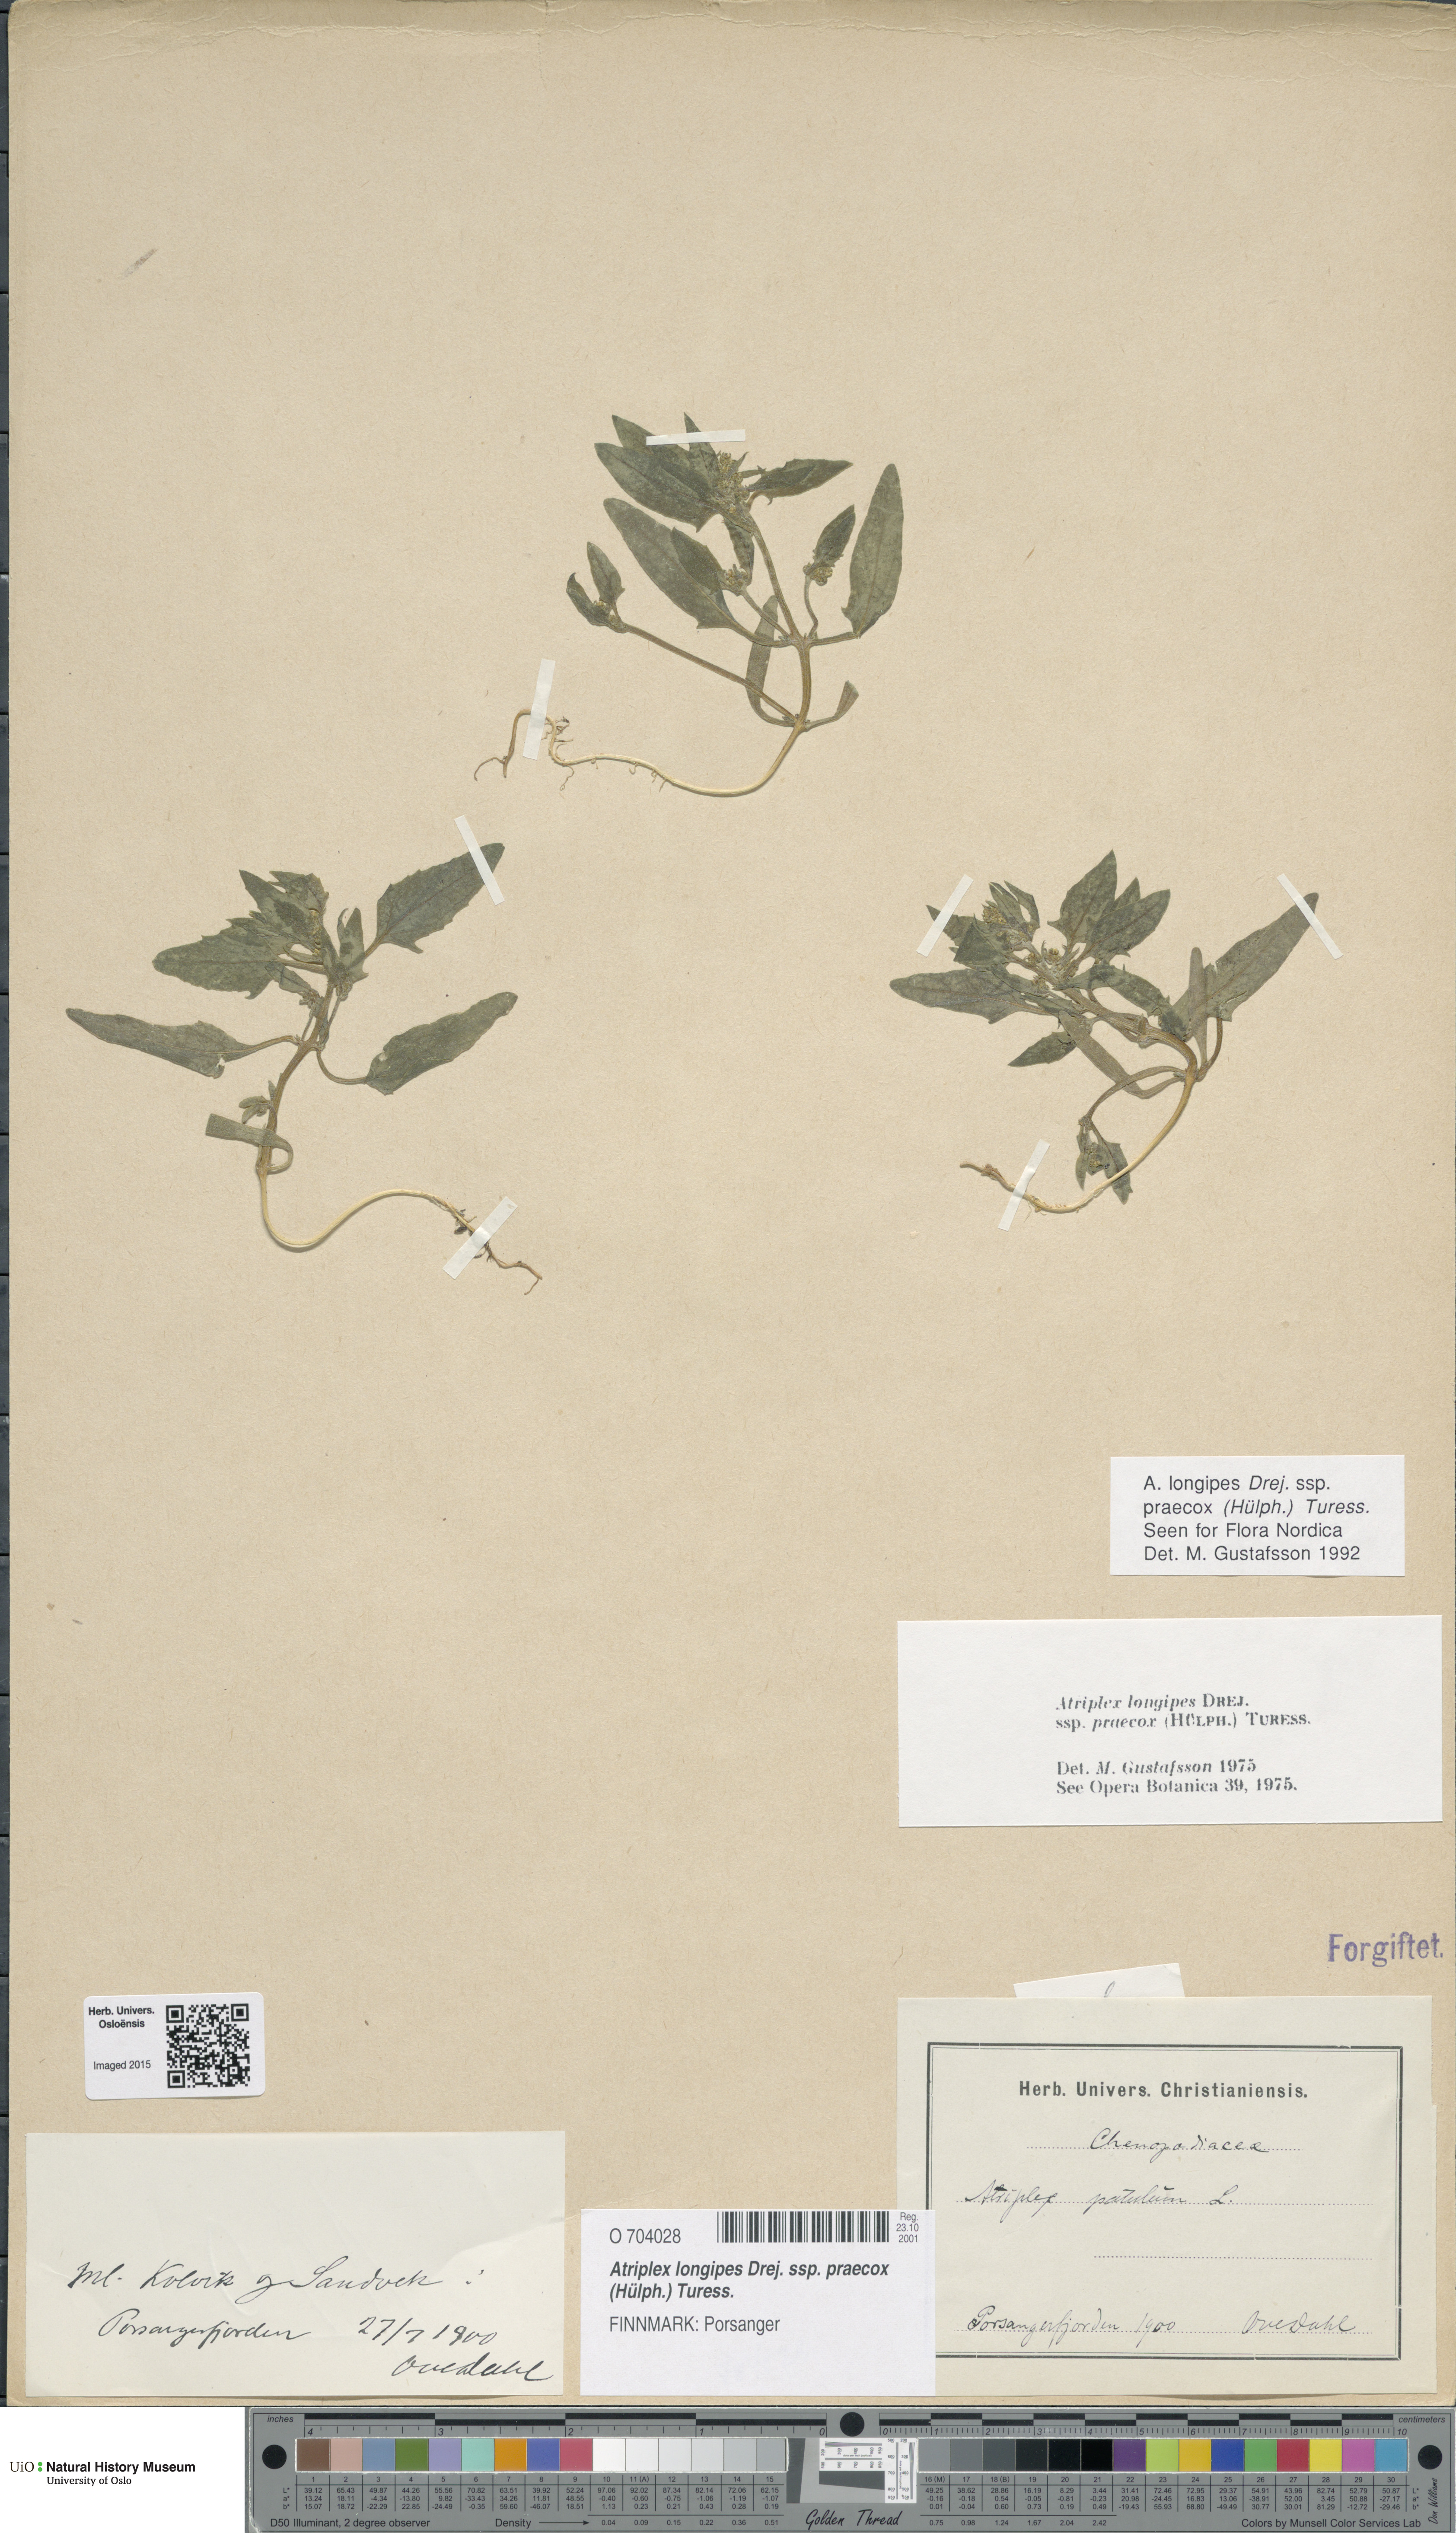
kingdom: Plantae
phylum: Tracheophyta
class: Magnoliopsida
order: Caryophyllales
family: Amaranthaceae
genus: Atriplex
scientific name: Atriplex praecox
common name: Early orache
